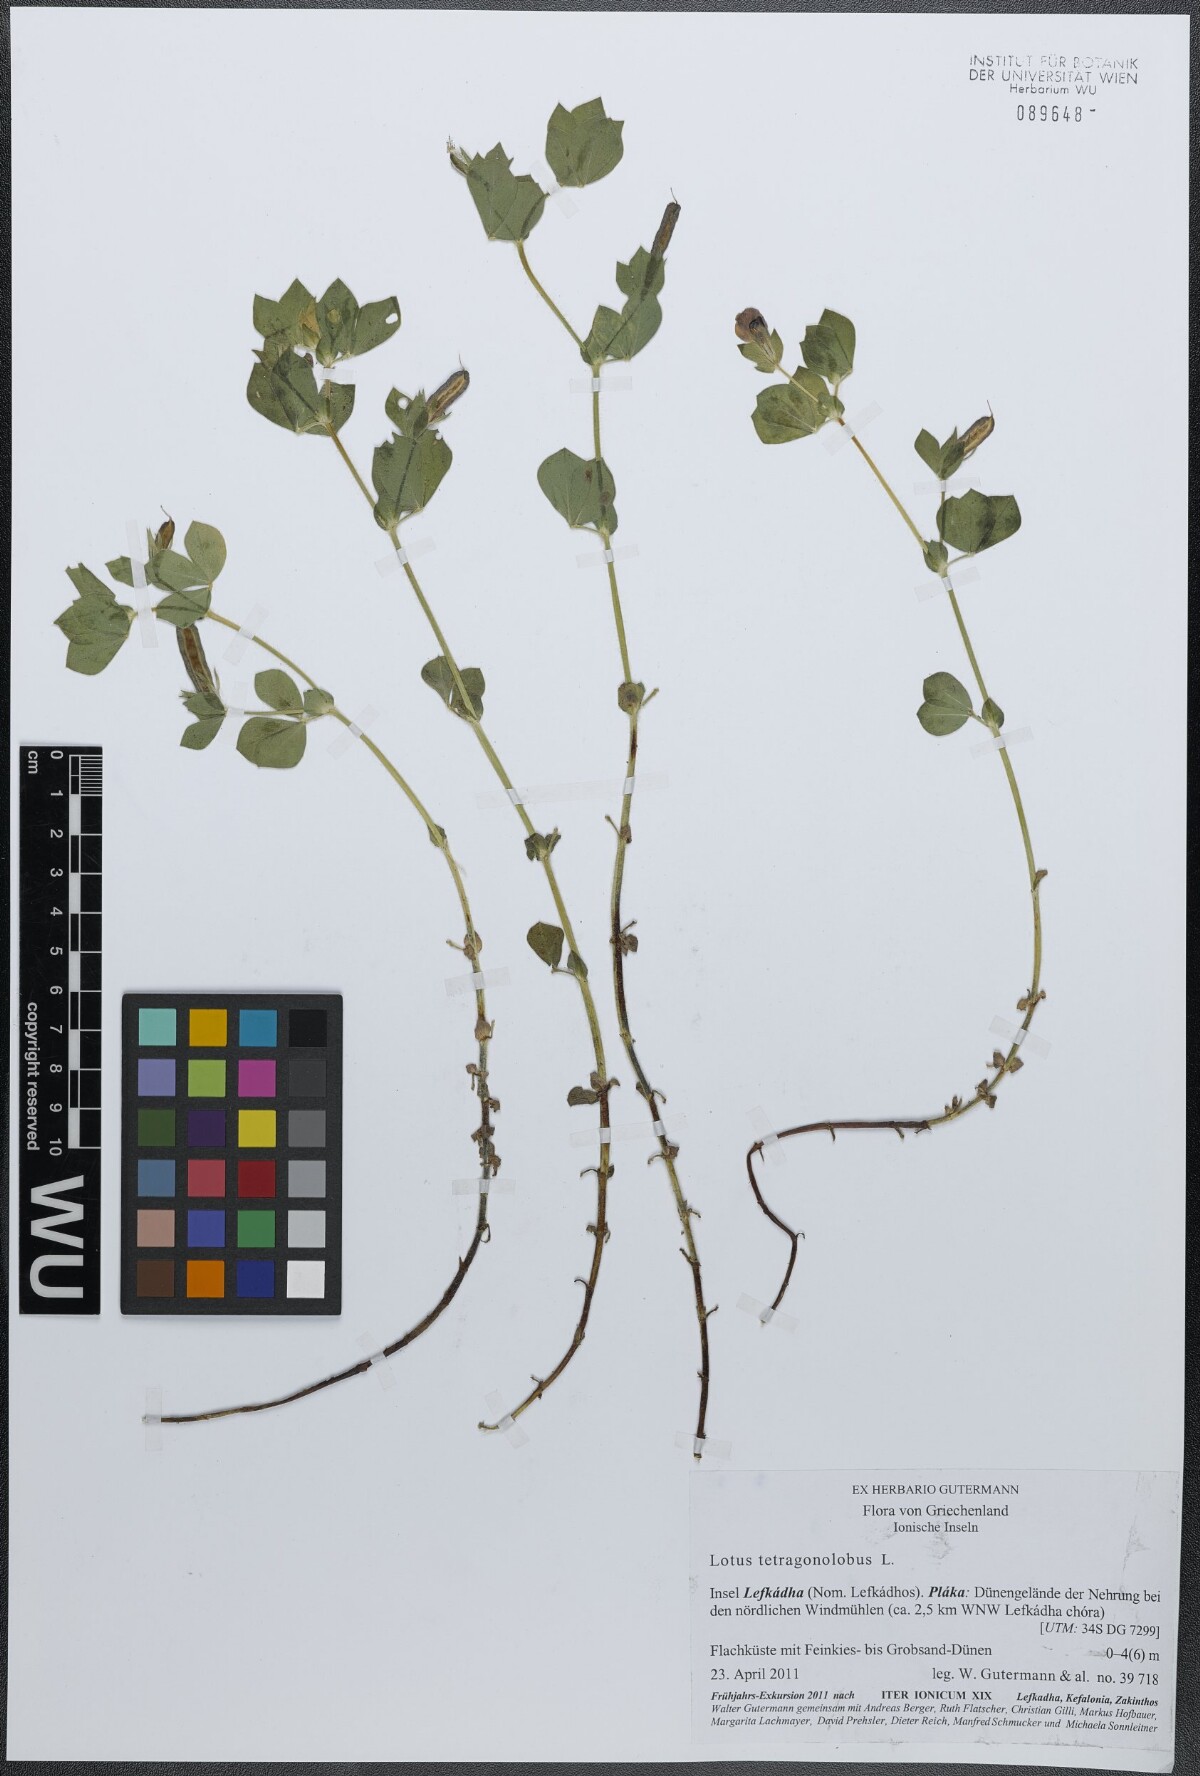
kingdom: Plantae
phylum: Tracheophyta
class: Magnoliopsida
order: Fabales
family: Fabaceae
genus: Lotus
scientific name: Lotus tetragonolobus
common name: Asparagus-pea
